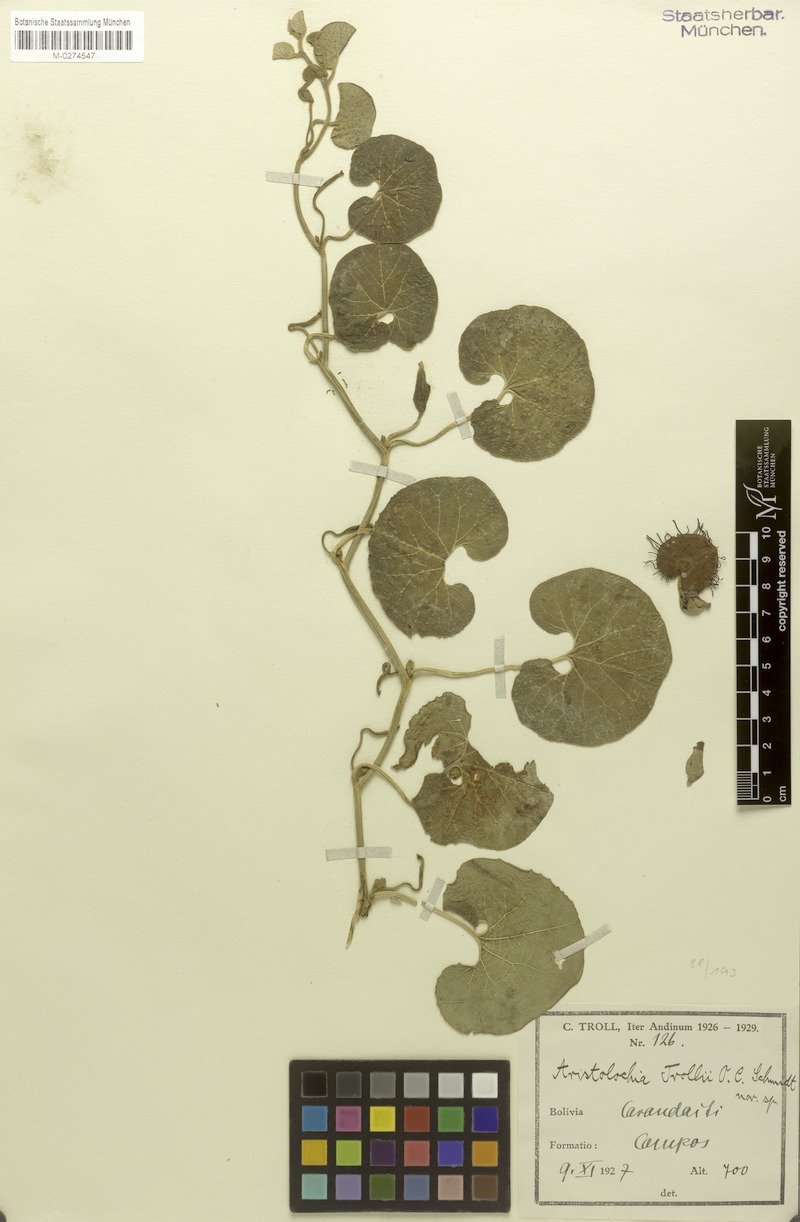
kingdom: Plantae
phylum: Tracheophyta
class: Magnoliopsida
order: Piperales
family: Aristolochiaceae
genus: Aristolochia
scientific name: Aristolochia prostrata
